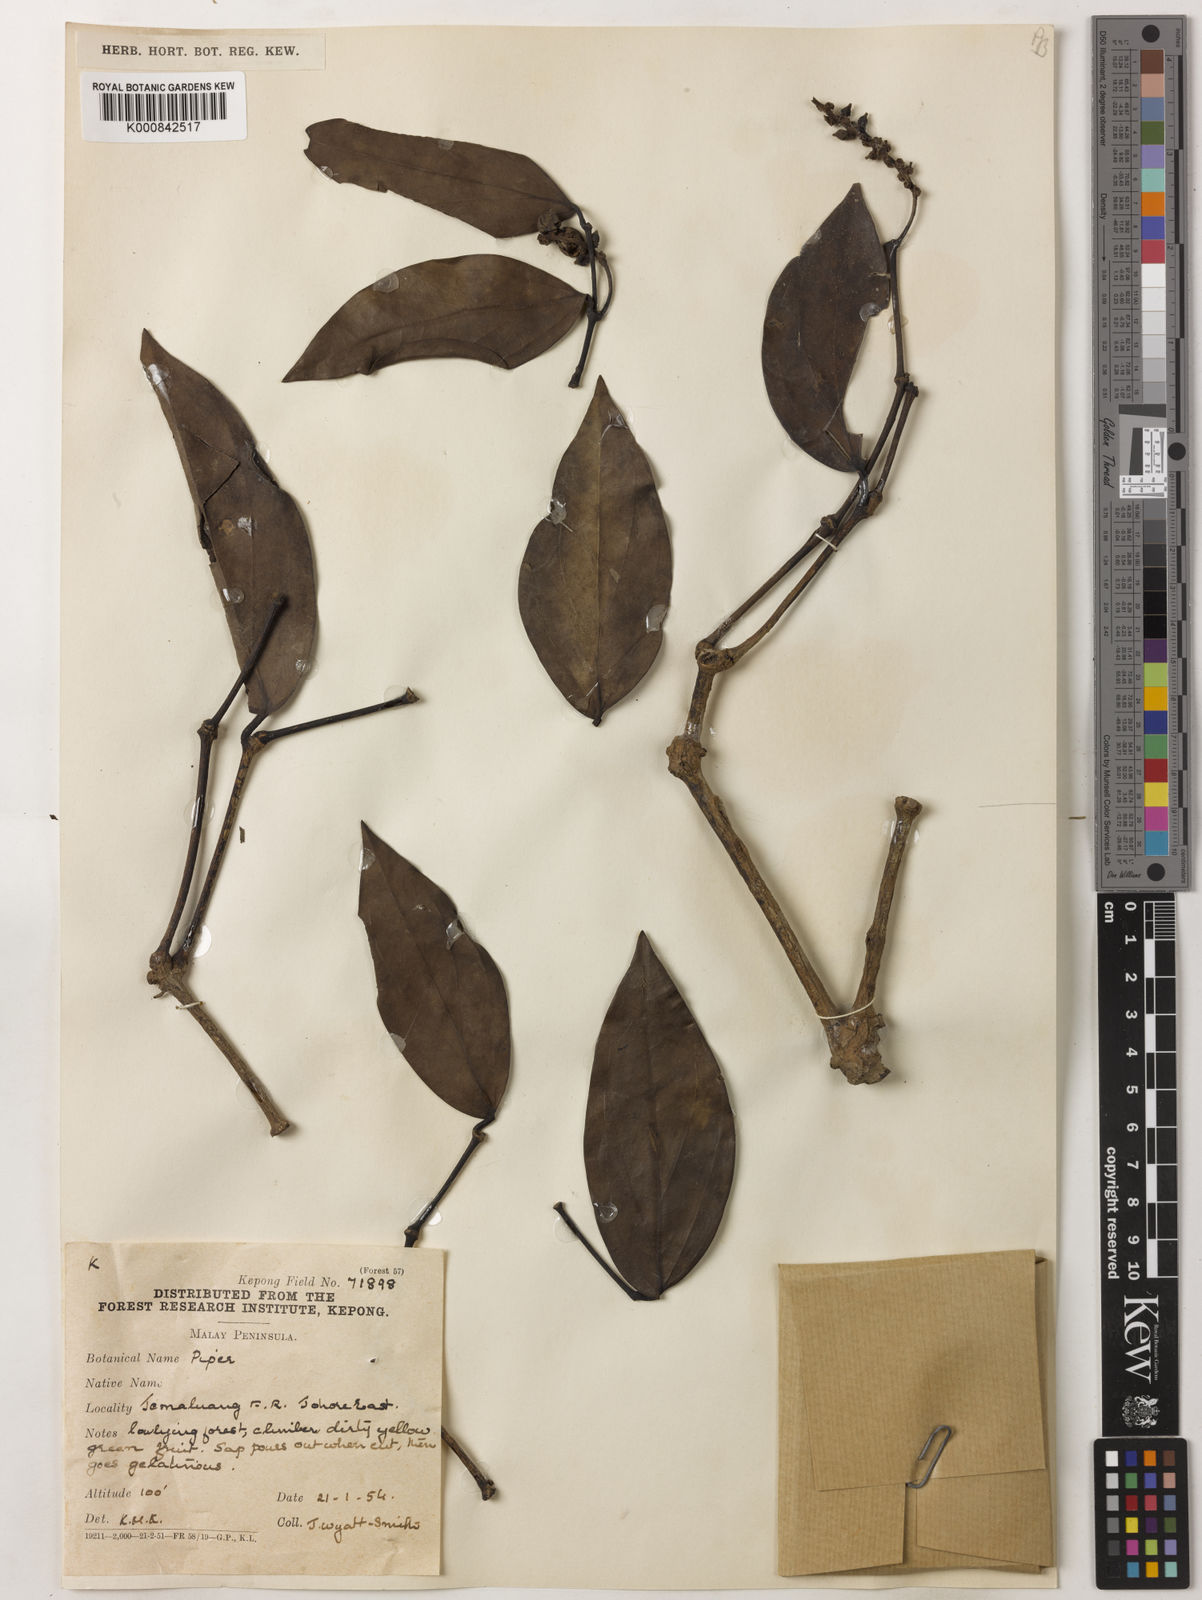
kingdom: Plantae
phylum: Tracheophyta
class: Magnoliopsida
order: Piperales
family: Piperaceae
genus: Piper
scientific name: Piper
